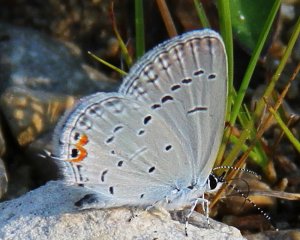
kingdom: Animalia
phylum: Arthropoda
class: Insecta
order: Lepidoptera
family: Lycaenidae
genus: Elkalyce
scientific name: Elkalyce comyntas
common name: Eastern Tailed-Blue
